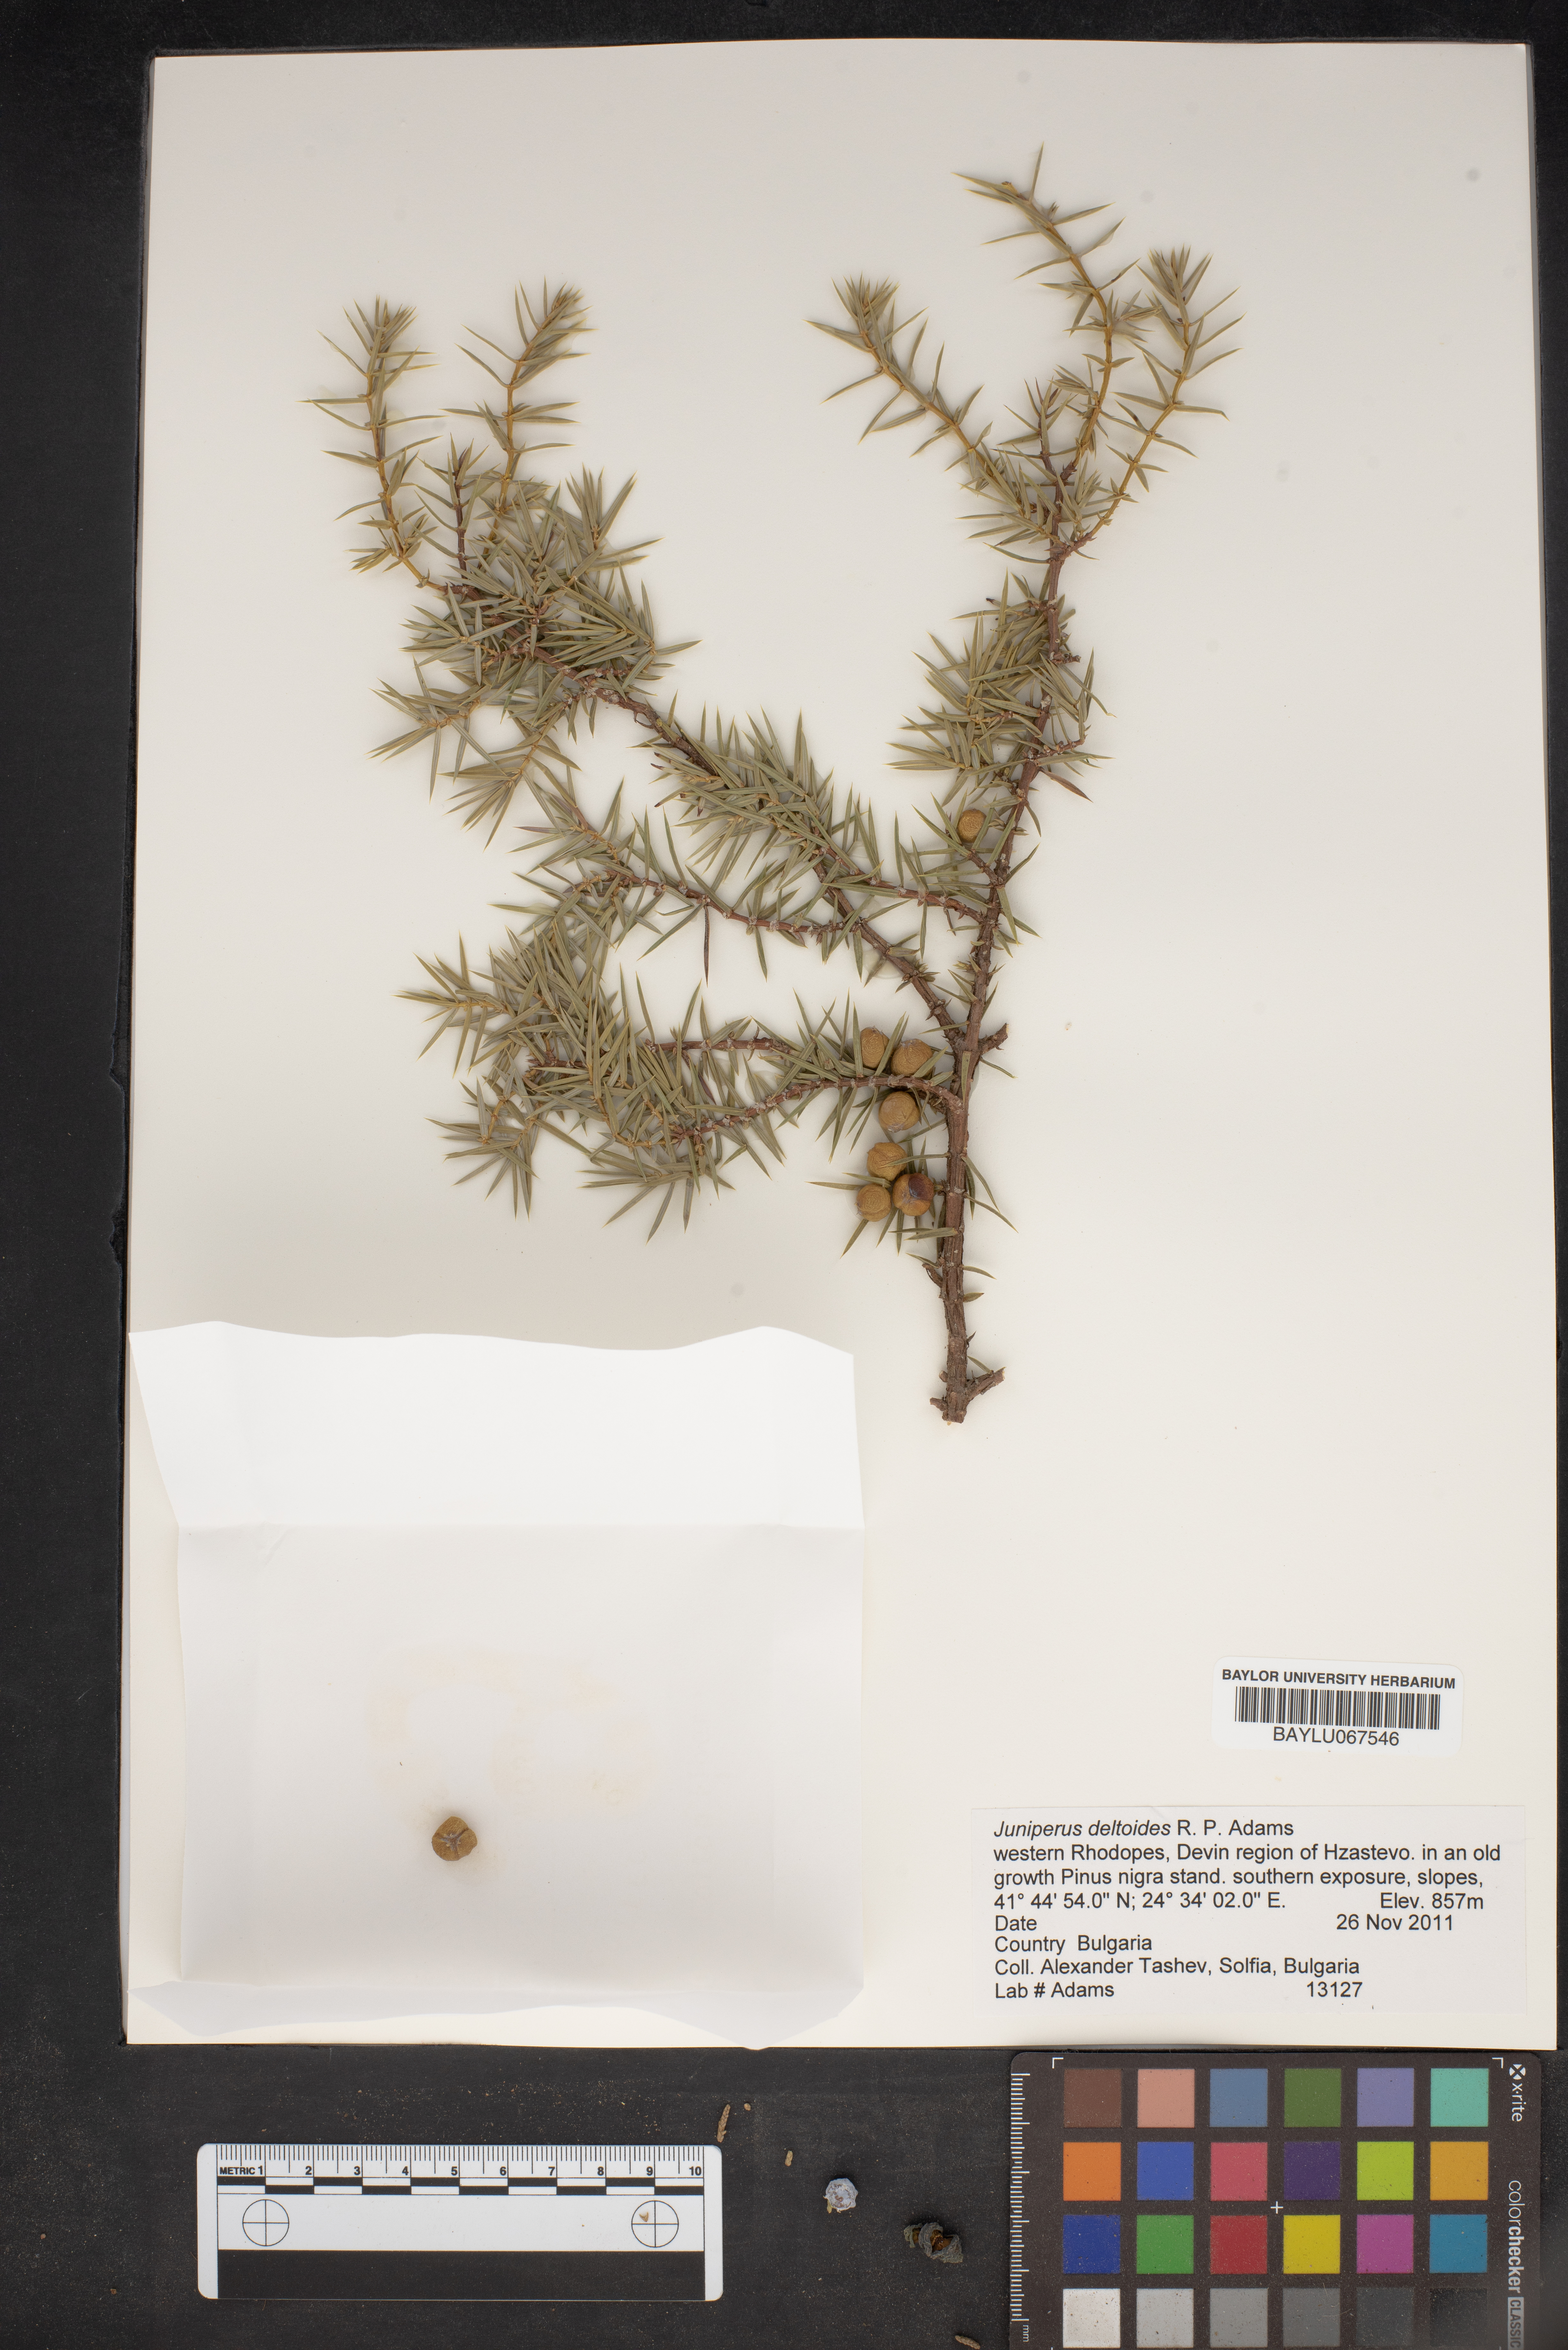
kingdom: Plantae
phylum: Tracheophyta
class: Pinopsida
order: Pinales
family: Cupressaceae
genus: Juniperus
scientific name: Juniperus oxycedrus
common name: Prickly juniper
